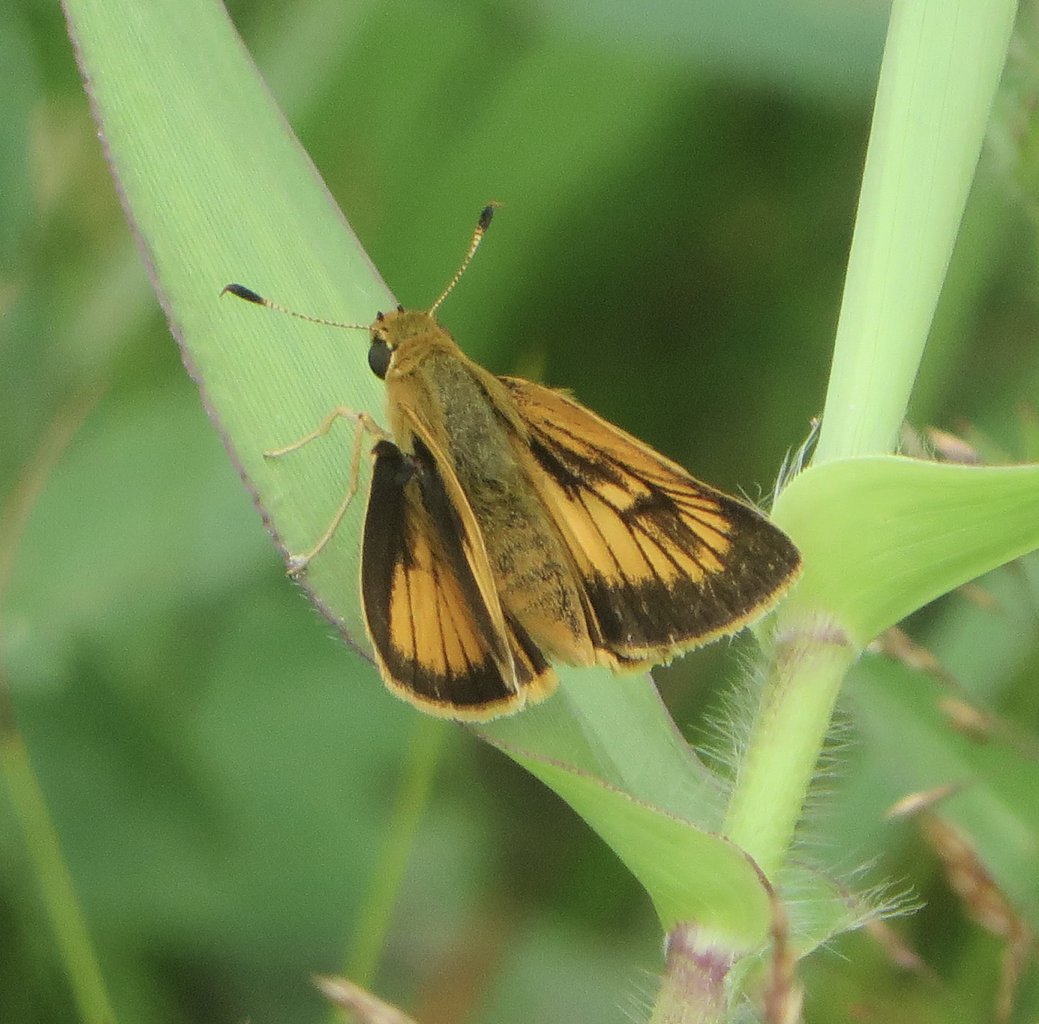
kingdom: Animalia
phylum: Arthropoda
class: Insecta
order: Lepidoptera
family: Hesperiidae
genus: Atrytone
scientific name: Atrytone delaware
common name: Delaware Skipper
